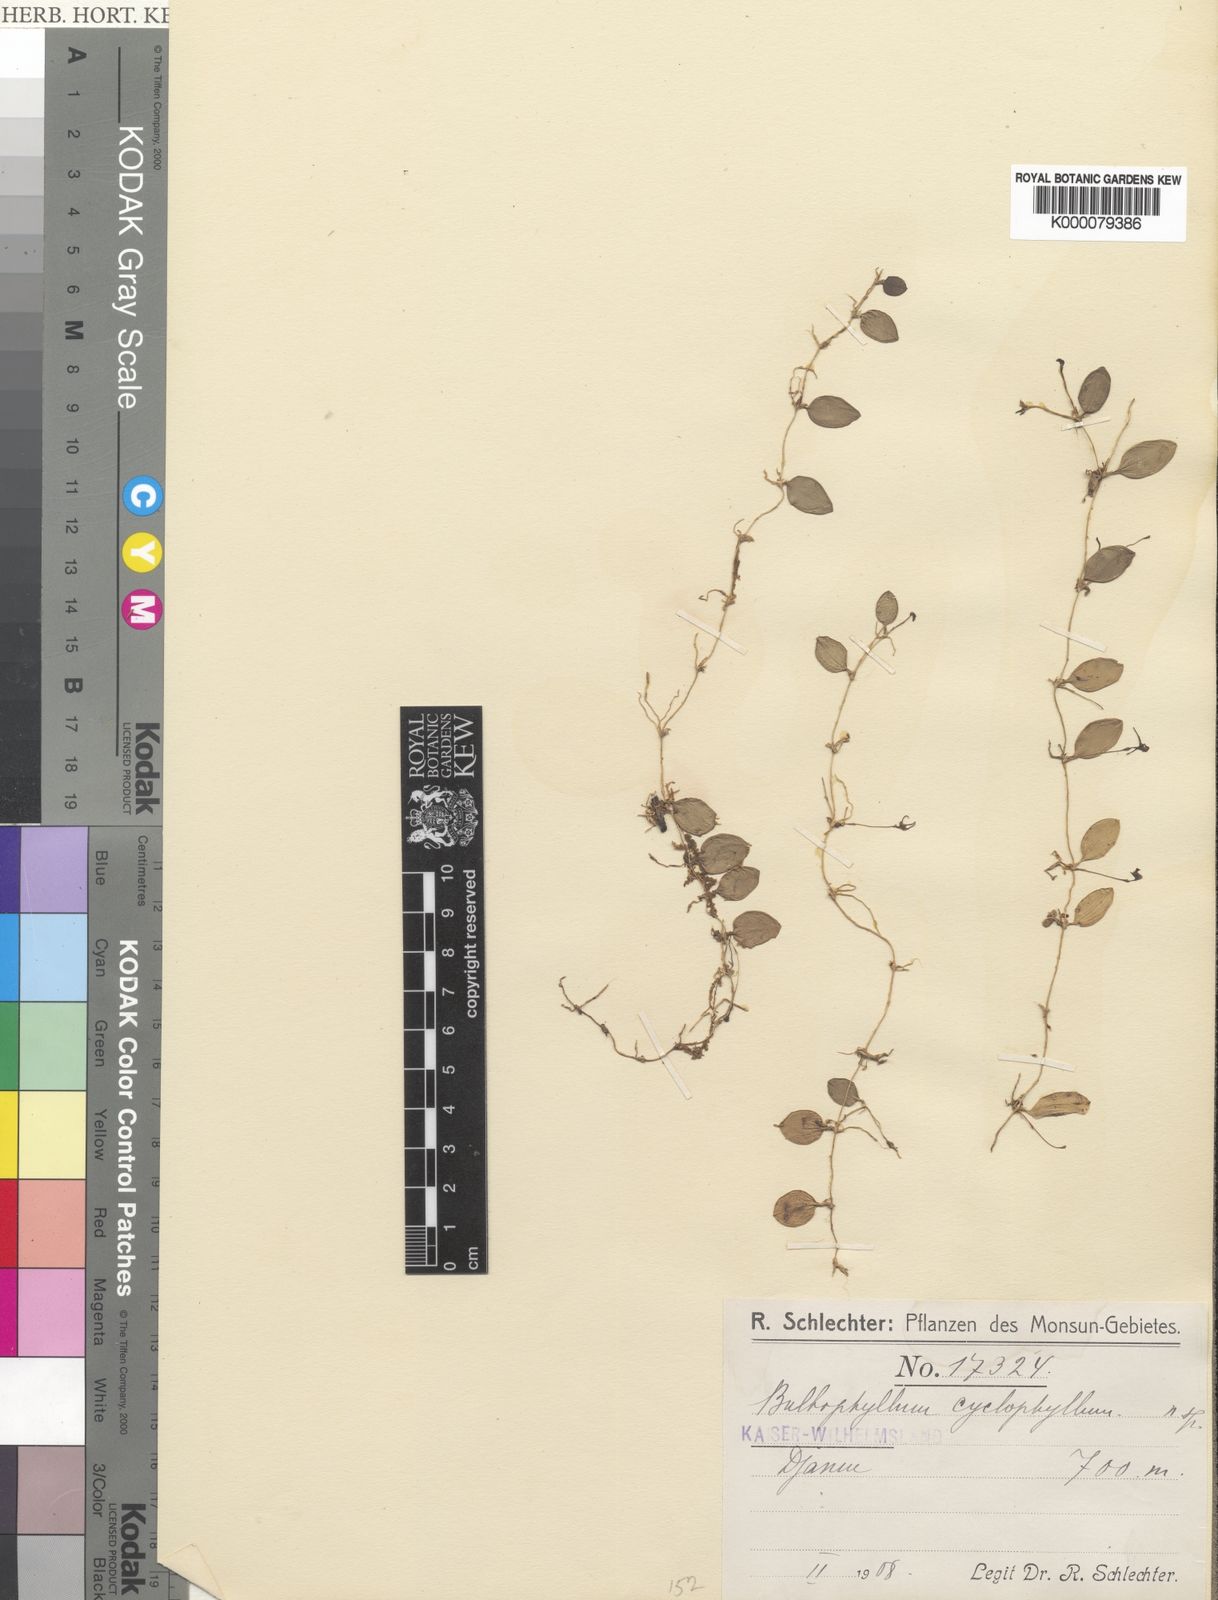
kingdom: Plantae
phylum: Tracheophyta
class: Liliopsida
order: Asparagales
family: Orchidaceae
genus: Bulbophyllum
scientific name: Bulbophyllum cyclophyllum
